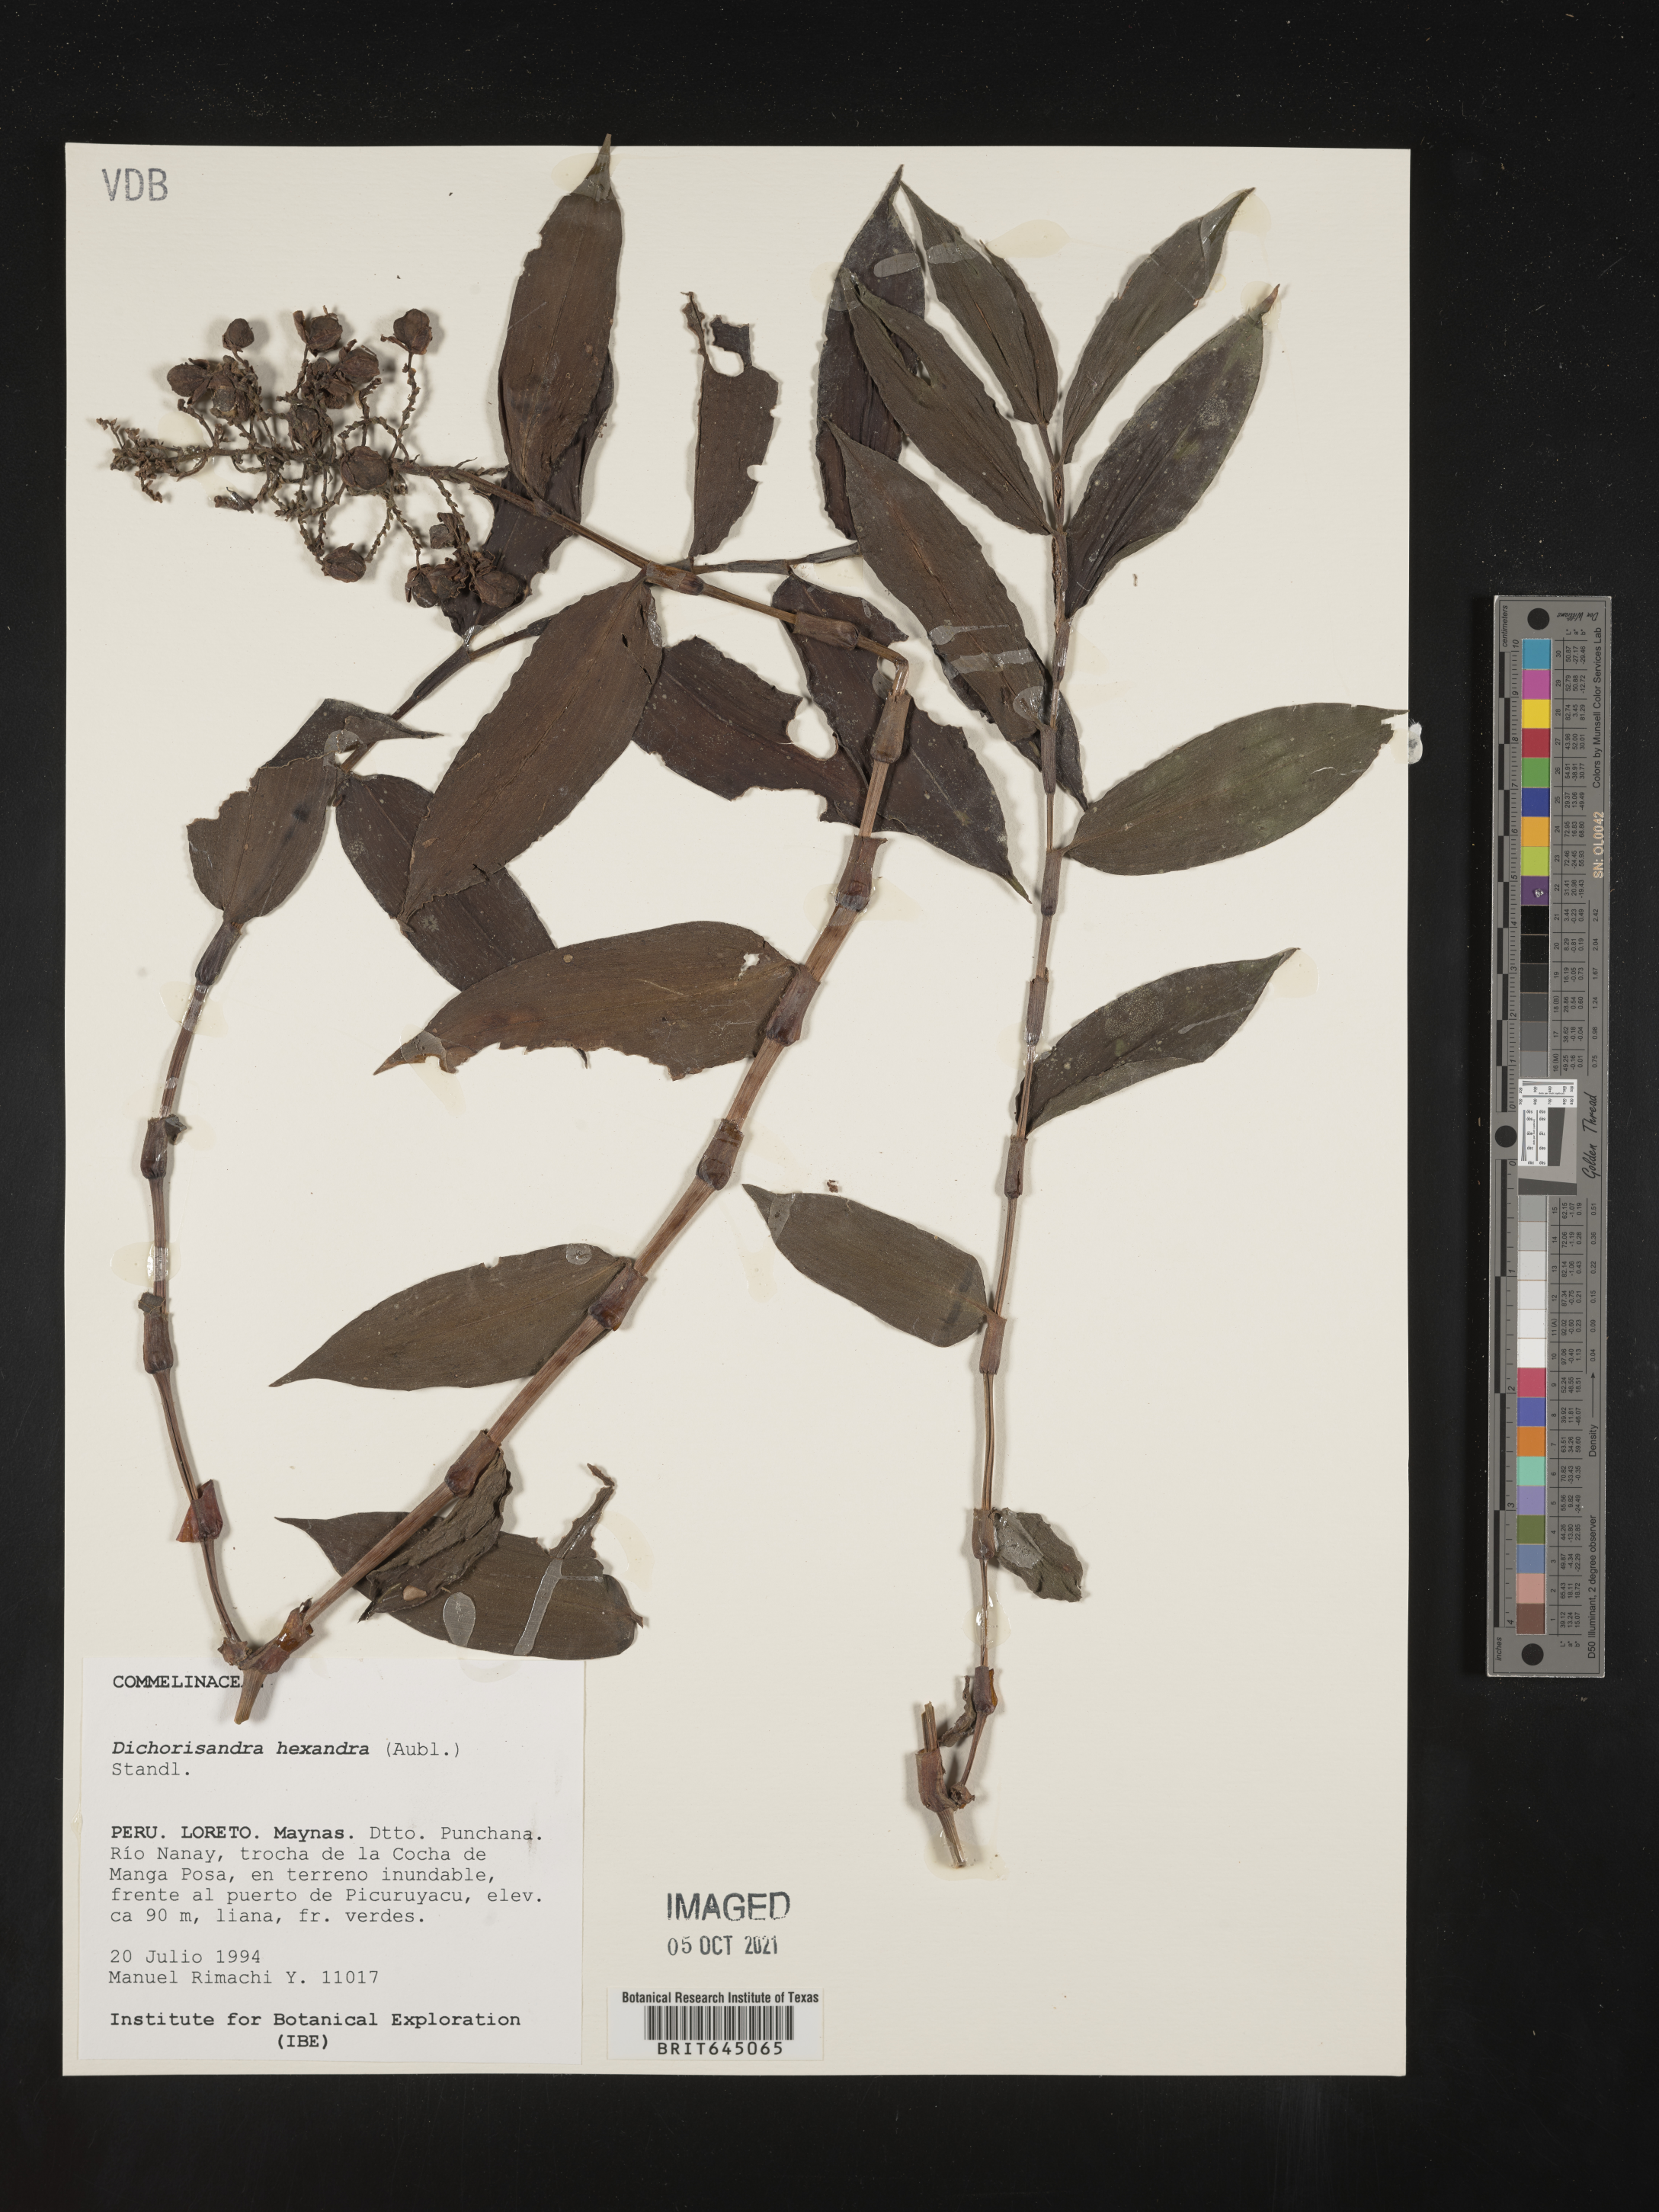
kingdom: Plantae
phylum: Tracheophyta
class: Liliopsida
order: Commelinales
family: Commelinaceae
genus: Dichorisandra
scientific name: Dichorisandra hexandra
